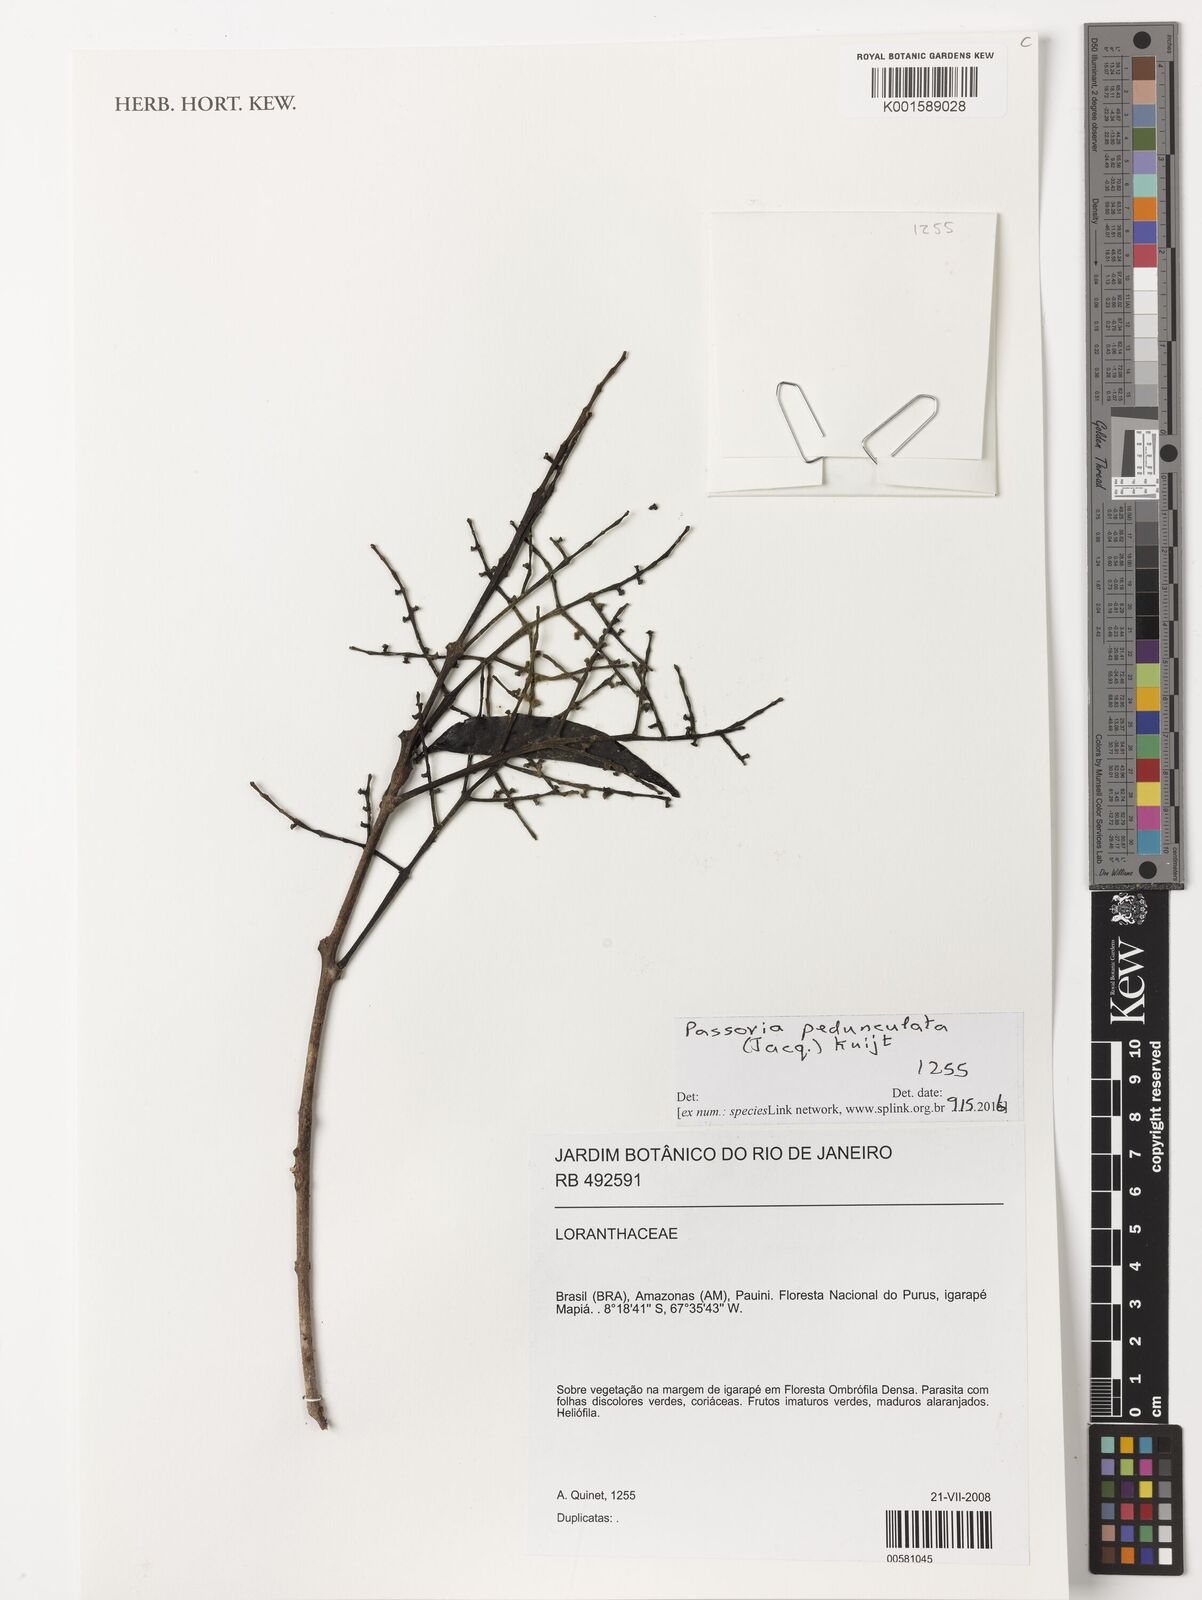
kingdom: Plantae
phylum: Tracheophyta
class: Magnoliopsida
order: Santalales
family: Loranthaceae
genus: Passovia
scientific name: Passovia pedunculata
